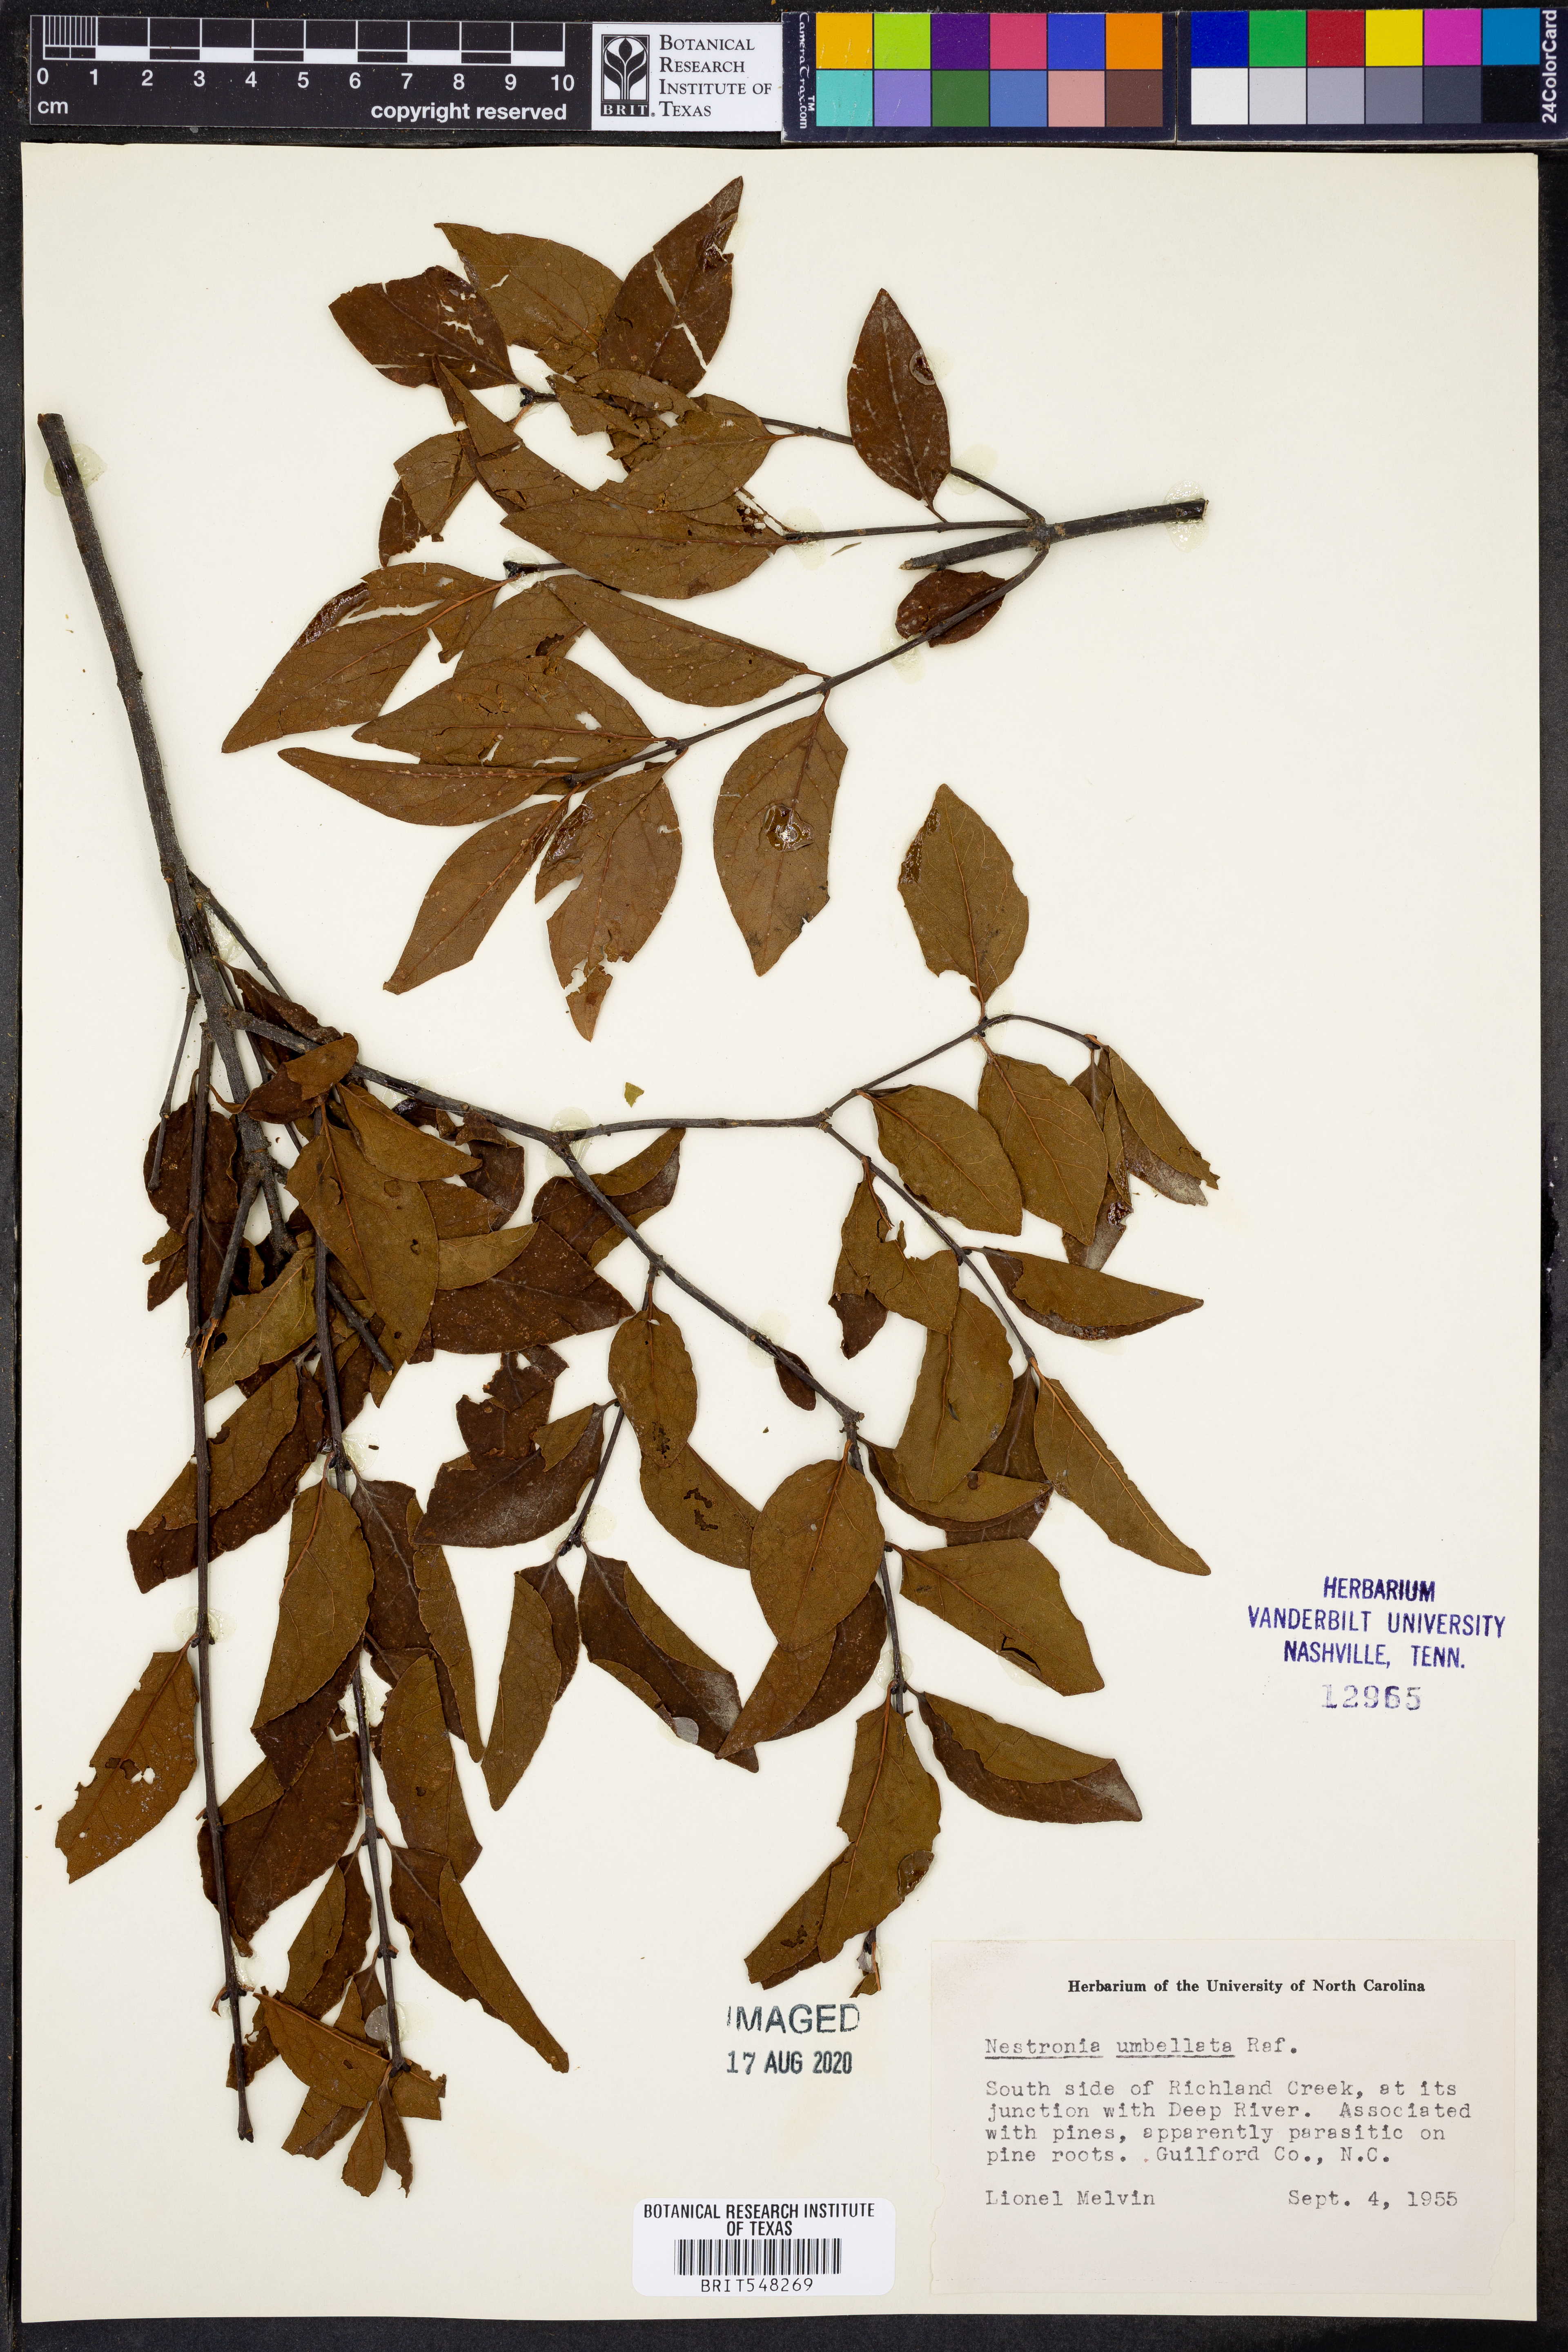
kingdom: Plantae
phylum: Tracheophyta
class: Magnoliopsida
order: Santalales
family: Santalaceae
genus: Nestronia
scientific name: Nestronia umbellula
